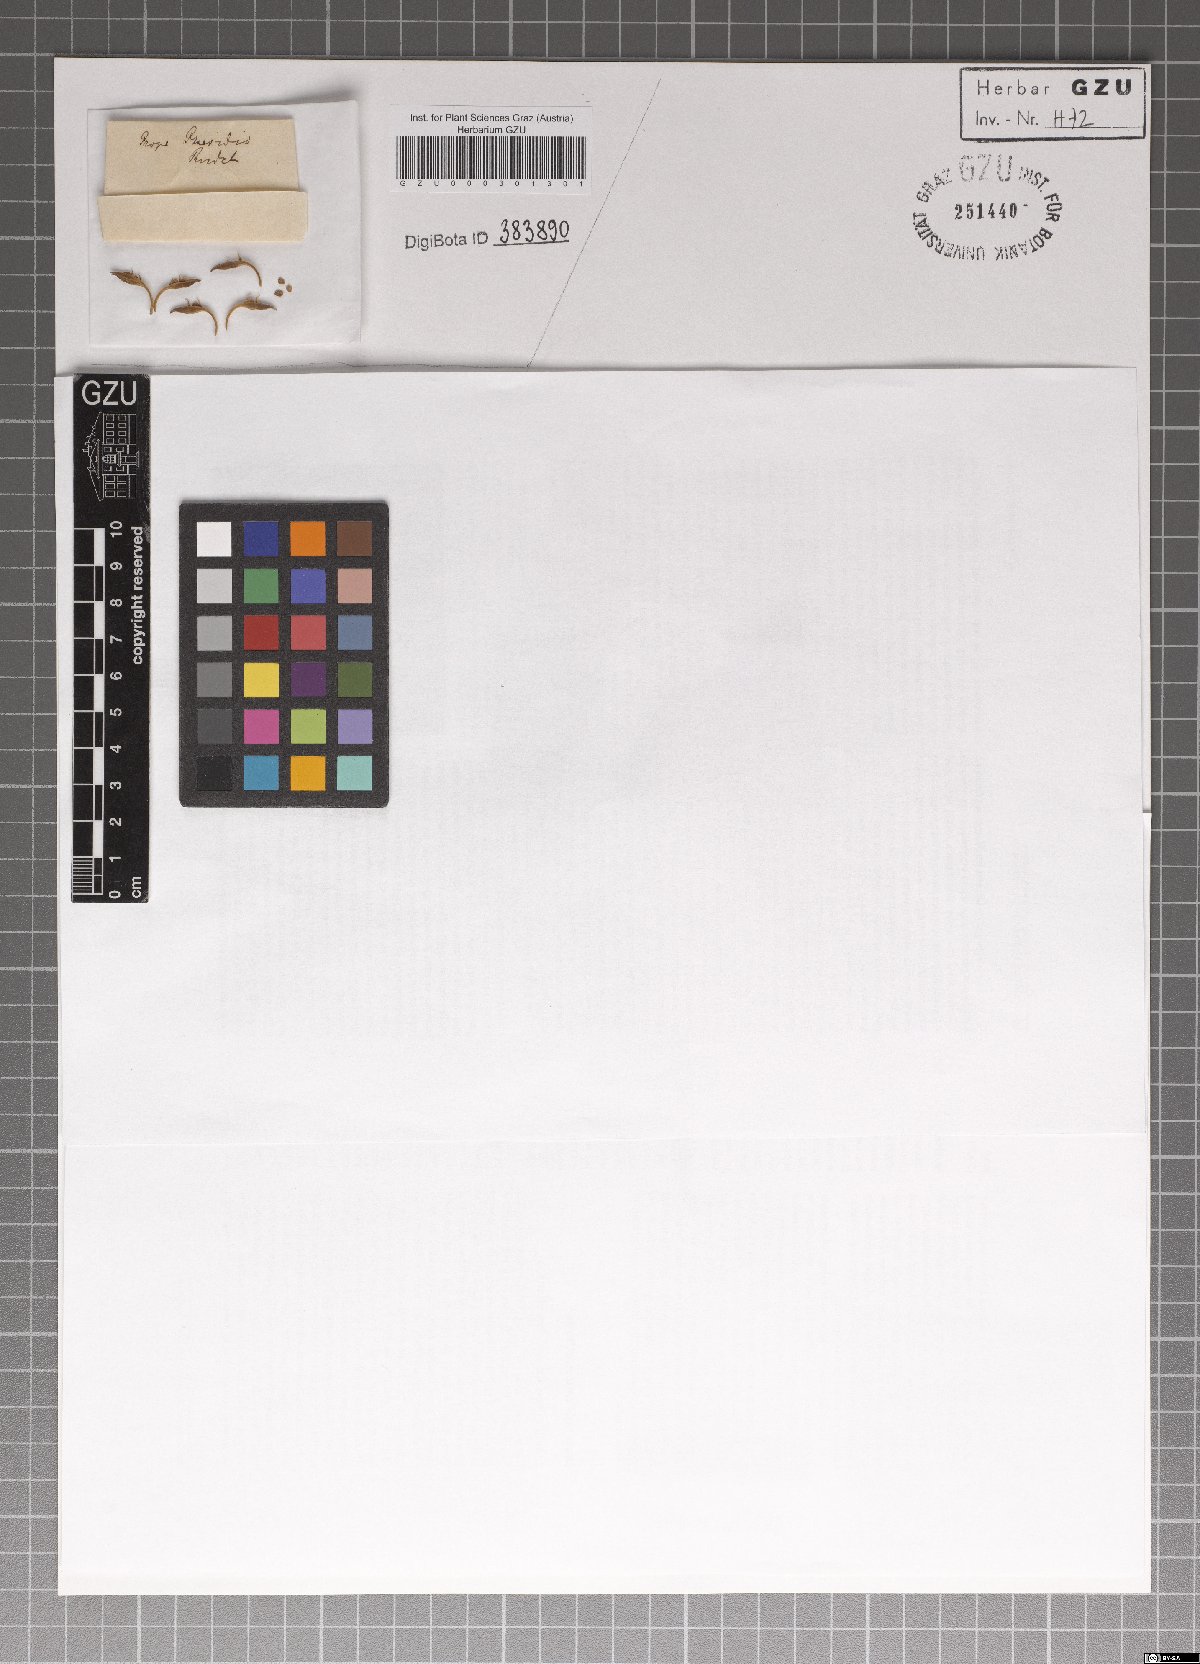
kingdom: Plantae
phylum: Tracheophyta
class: Magnoliopsida
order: Lamiales
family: Acanthaceae
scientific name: Acanthaceae
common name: Acanthaceae
